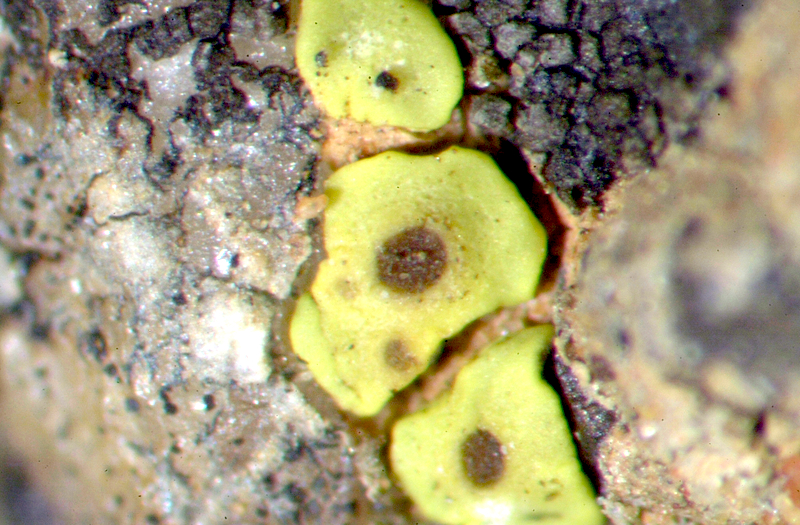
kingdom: Fungi
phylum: Ascomycota
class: Lecanoromycetes
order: Teloschistales
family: Teloschistaceae
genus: Caloplaca
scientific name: Caloplaca
